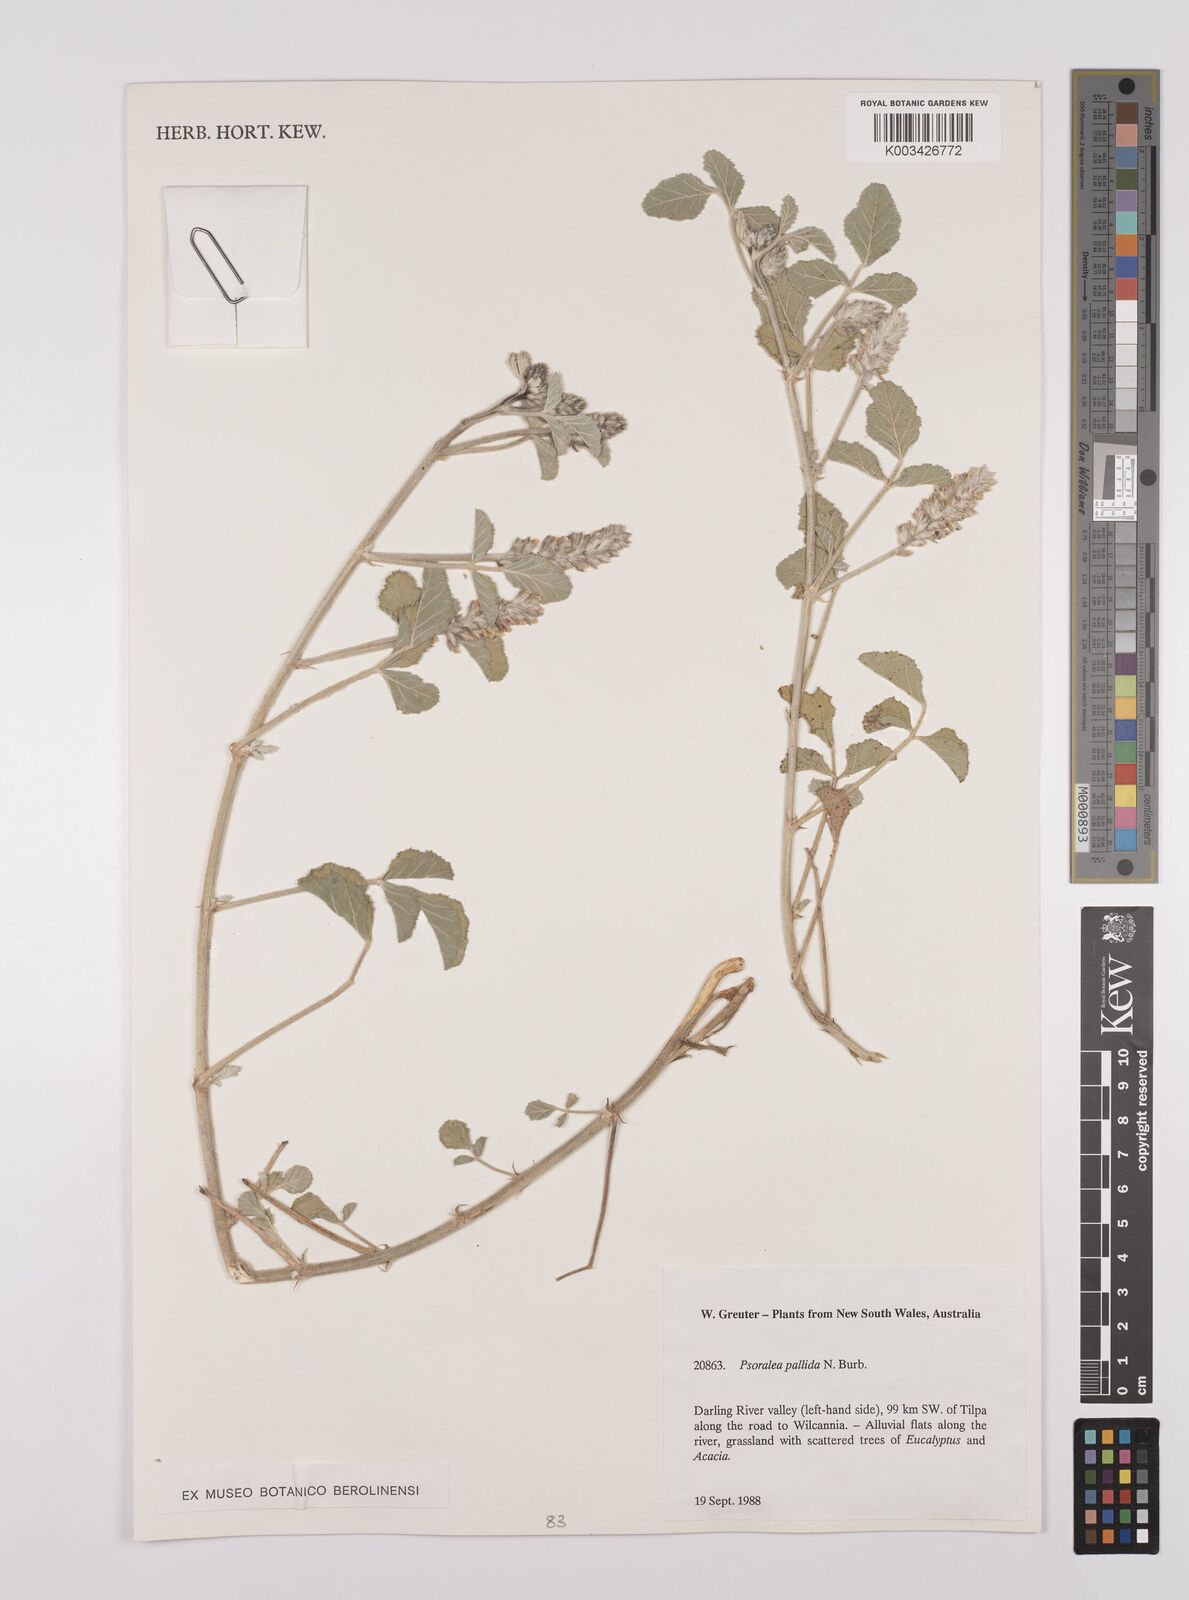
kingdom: Plantae
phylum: Tracheophyta
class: Magnoliopsida
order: Fabales
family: Fabaceae
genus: Cullen
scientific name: Cullen pallidum
